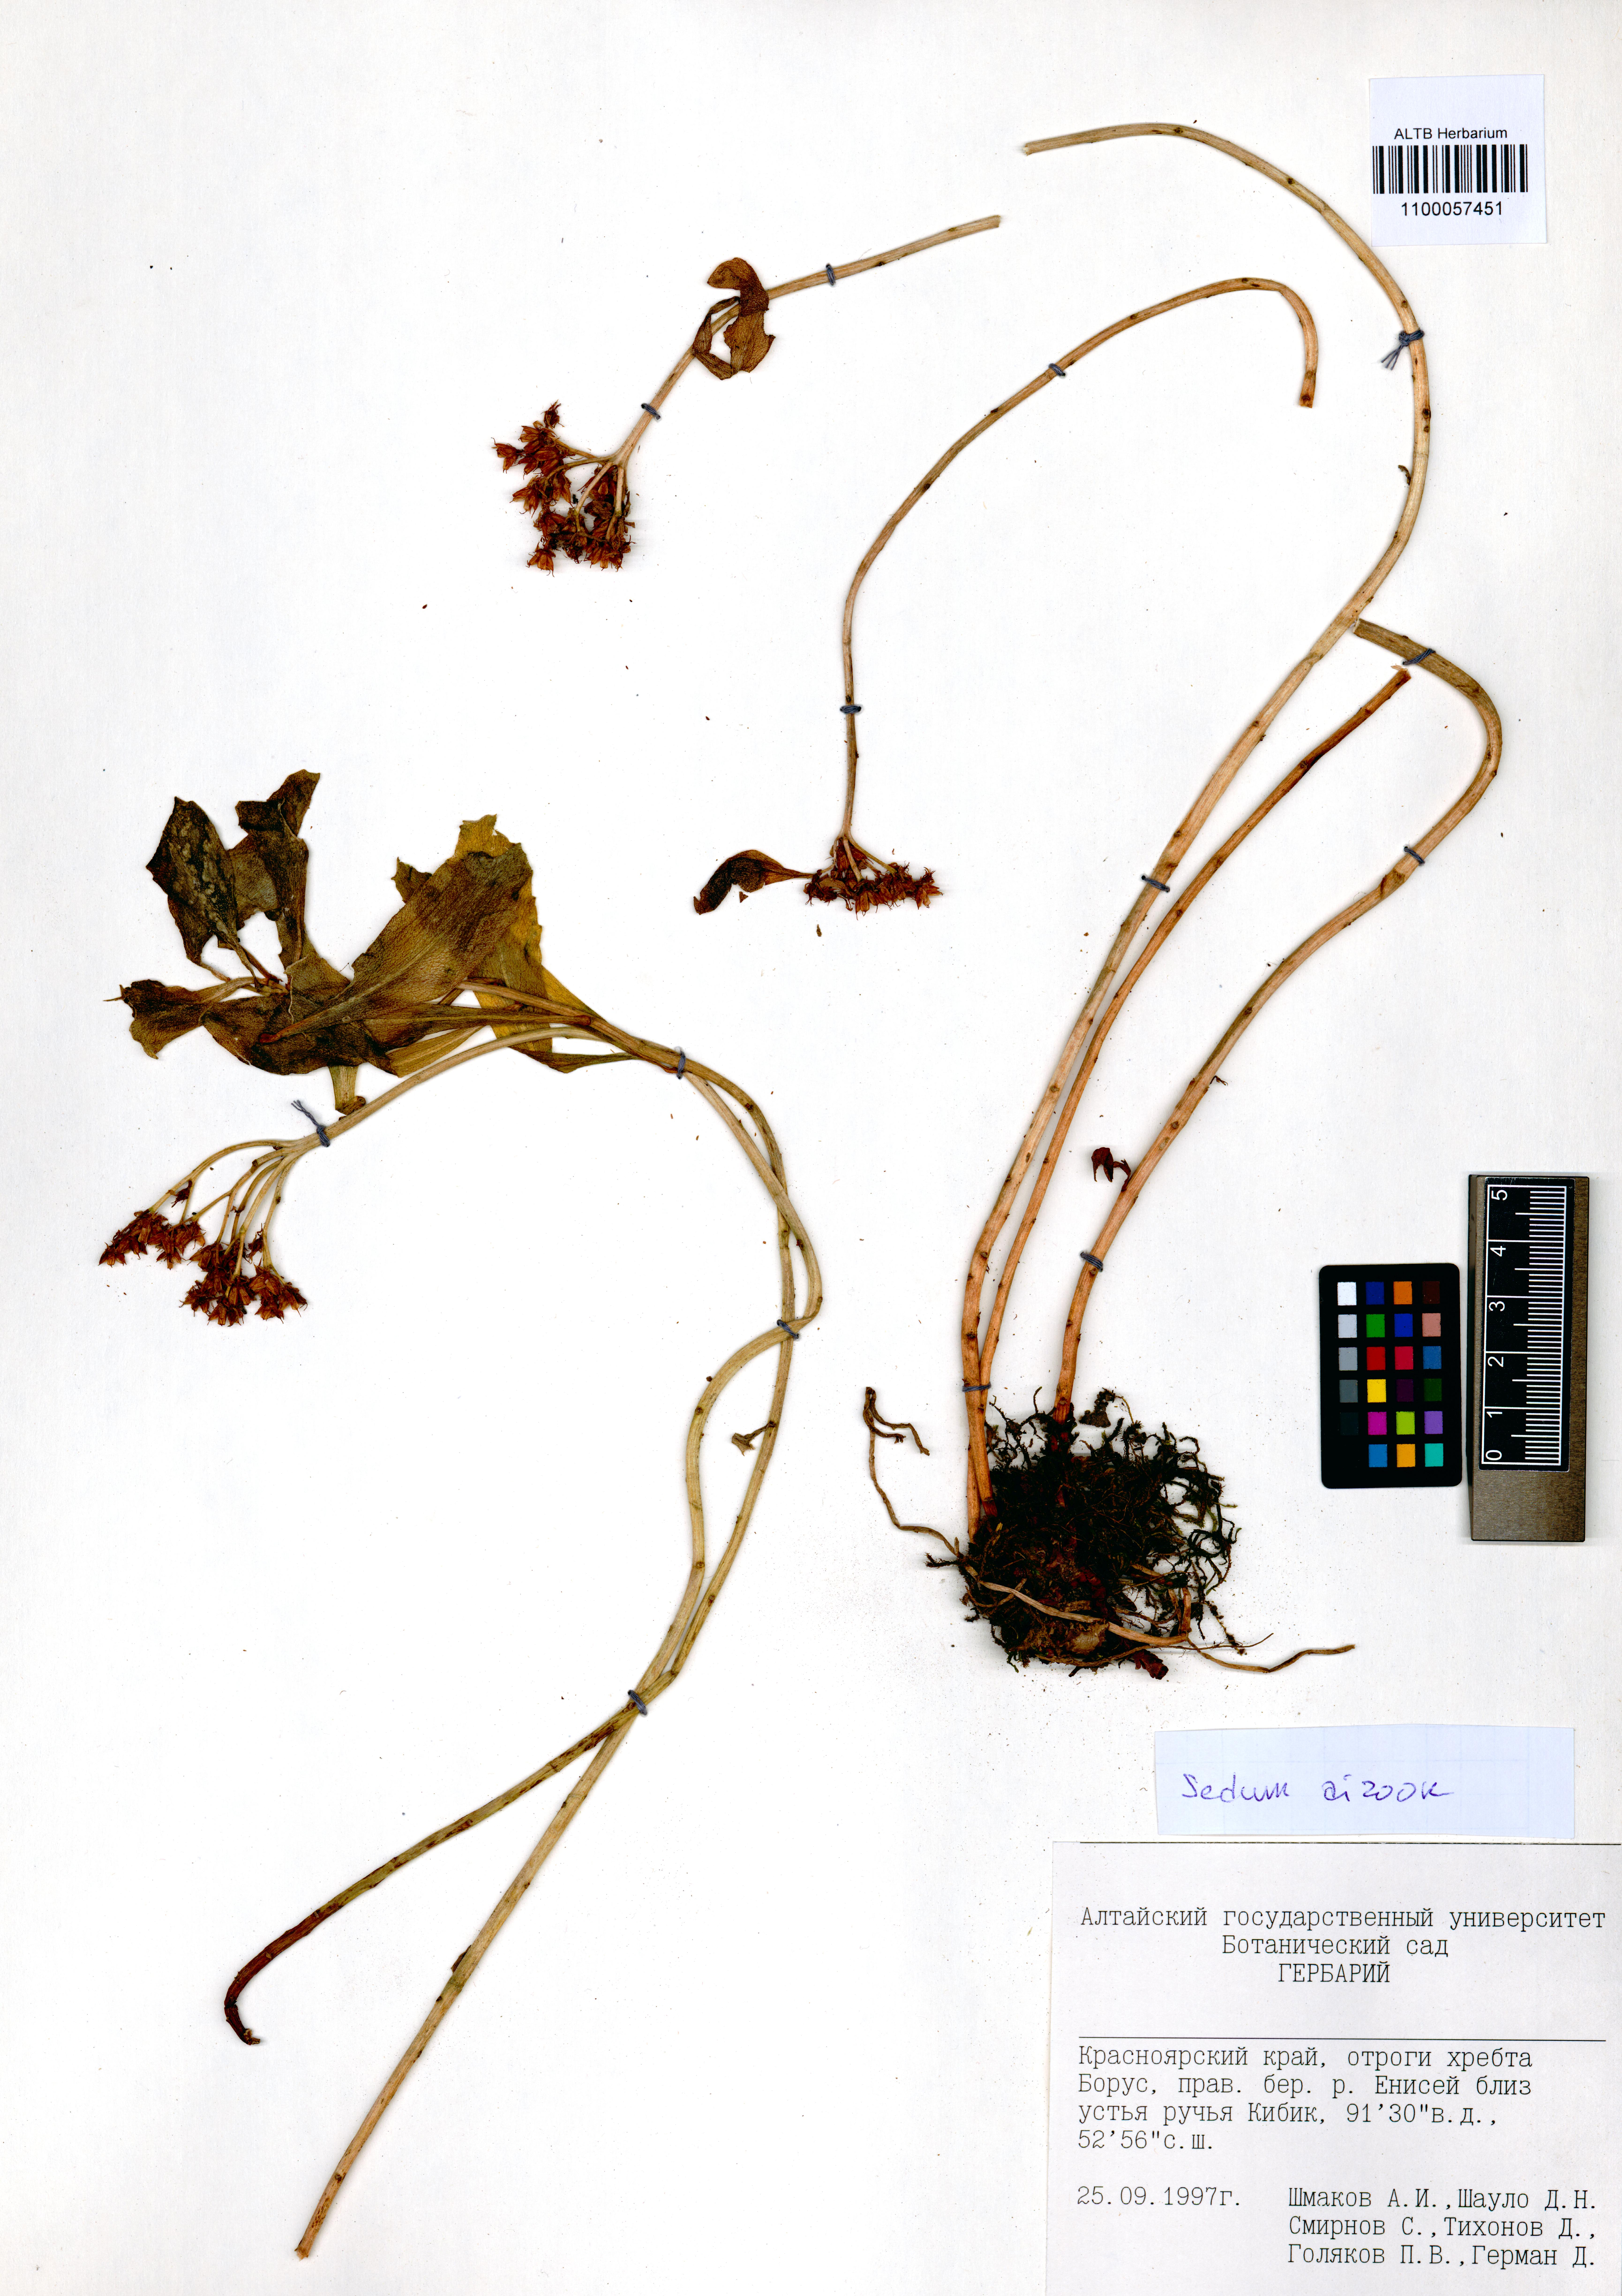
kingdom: Plantae
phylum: Tracheophyta
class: Magnoliopsida
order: Saxifragales
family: Crassulaceae
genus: Phedimus
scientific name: Phedimus aizoon
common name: Orpin aizoon
